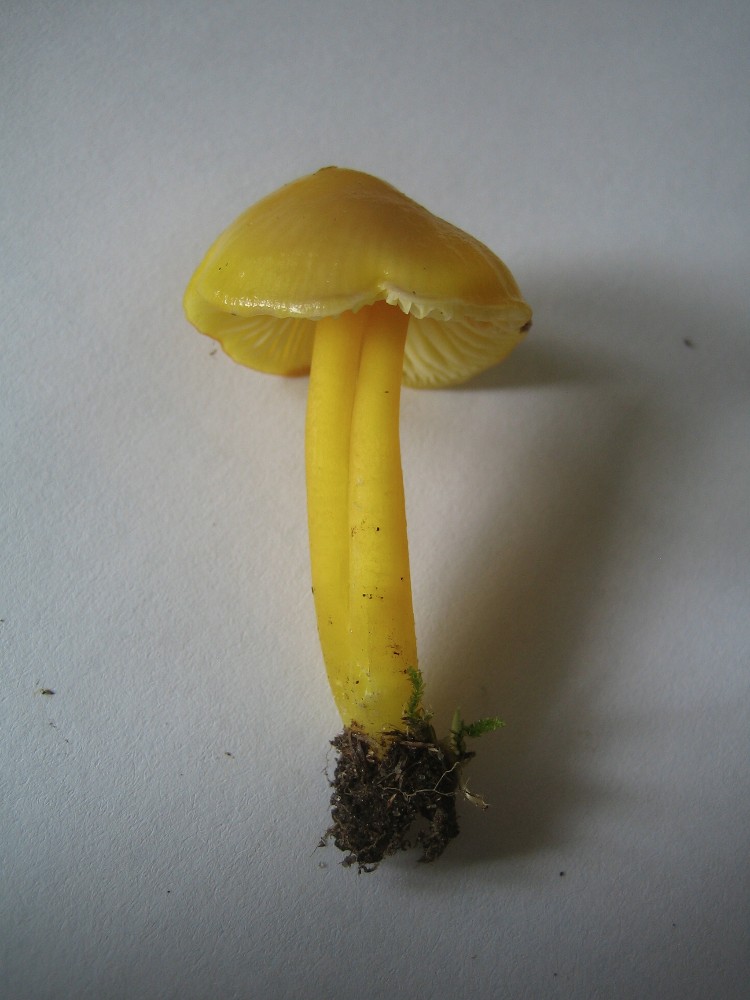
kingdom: Fungi
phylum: Basidiomycota
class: Agaricomycetes
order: Agaricales
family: Hygrophoraceae
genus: Hygrocybe
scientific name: Hygrocybe chlorophana
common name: gul vokshat
